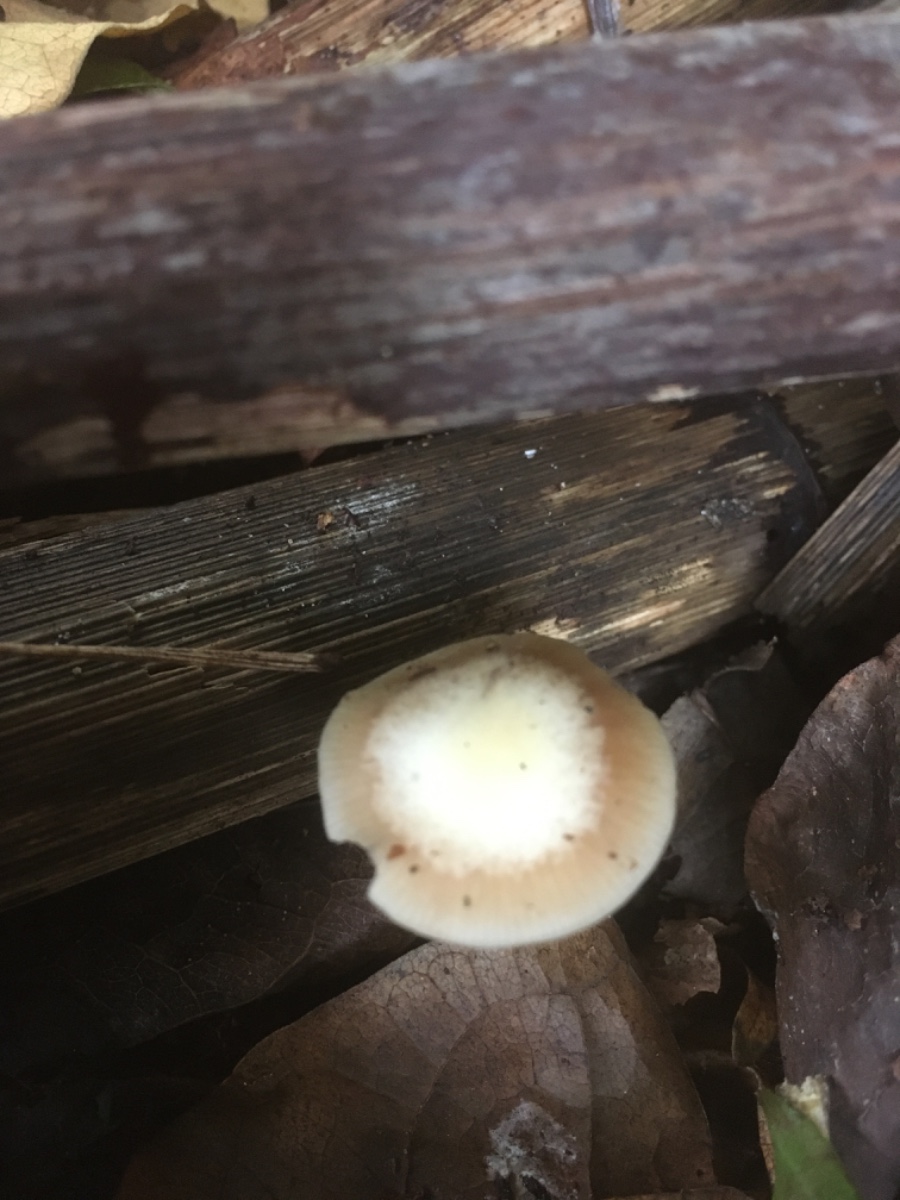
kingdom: Fungi
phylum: Basidiomycota
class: Agaricomycetes
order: Agaricales
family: Omphalotaceae
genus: Rhodocollybia
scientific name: Rhodocollybia asema
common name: horngrå fladhat
